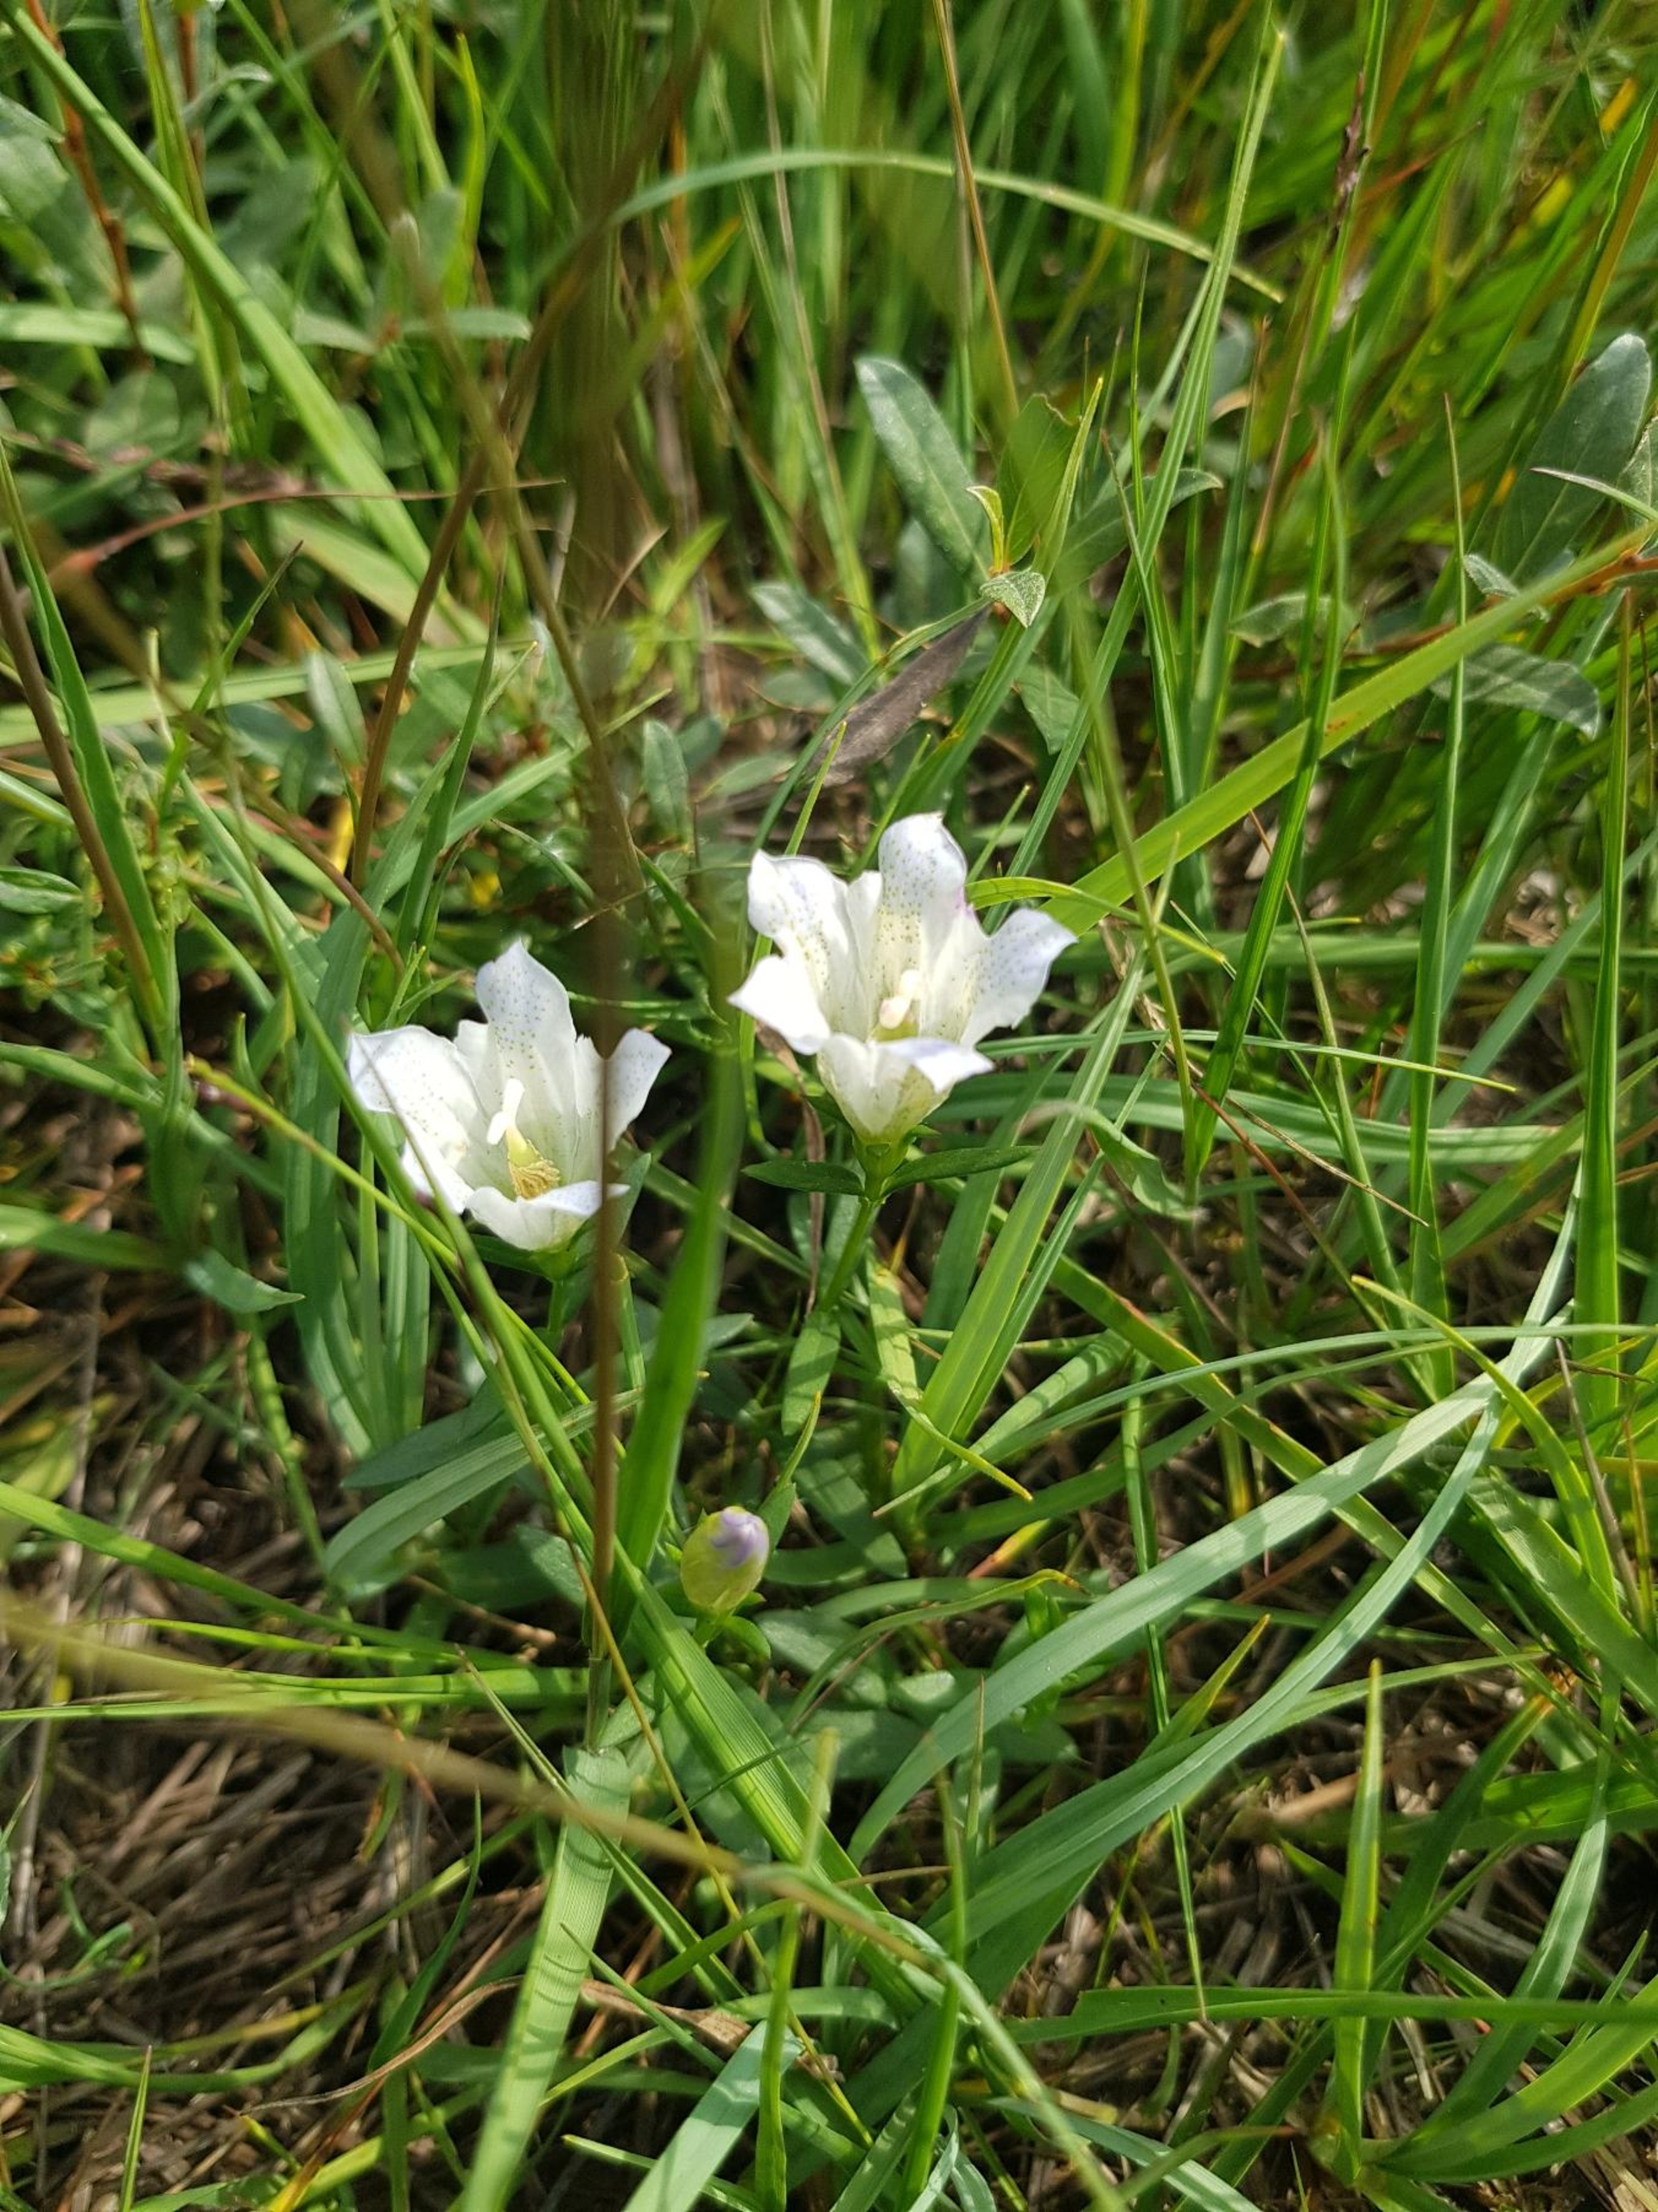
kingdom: Plantae
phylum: Tracheophyta
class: Magnoliopsida
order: Gentianales
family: Gentianaceae
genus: Gentiana
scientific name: Gentiana pneumonanthe
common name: Klokke-ensian
